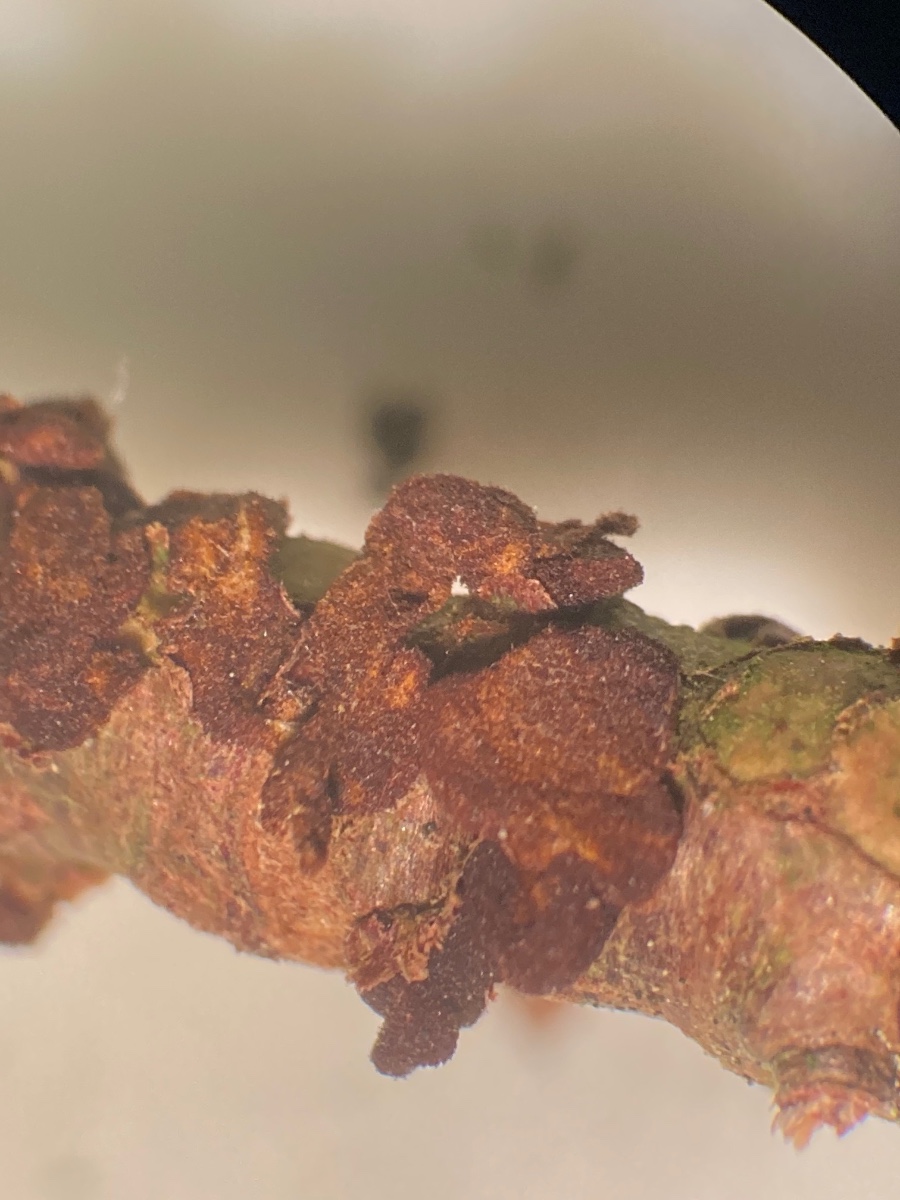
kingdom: Fungi
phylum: Basidiomycota
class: Pucciniomycetes
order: Pucciniales
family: Gymnosporangiaceae
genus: Gymnosporangium
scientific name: Gymnosporangium sabinae
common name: pæregitter-bævrerust
